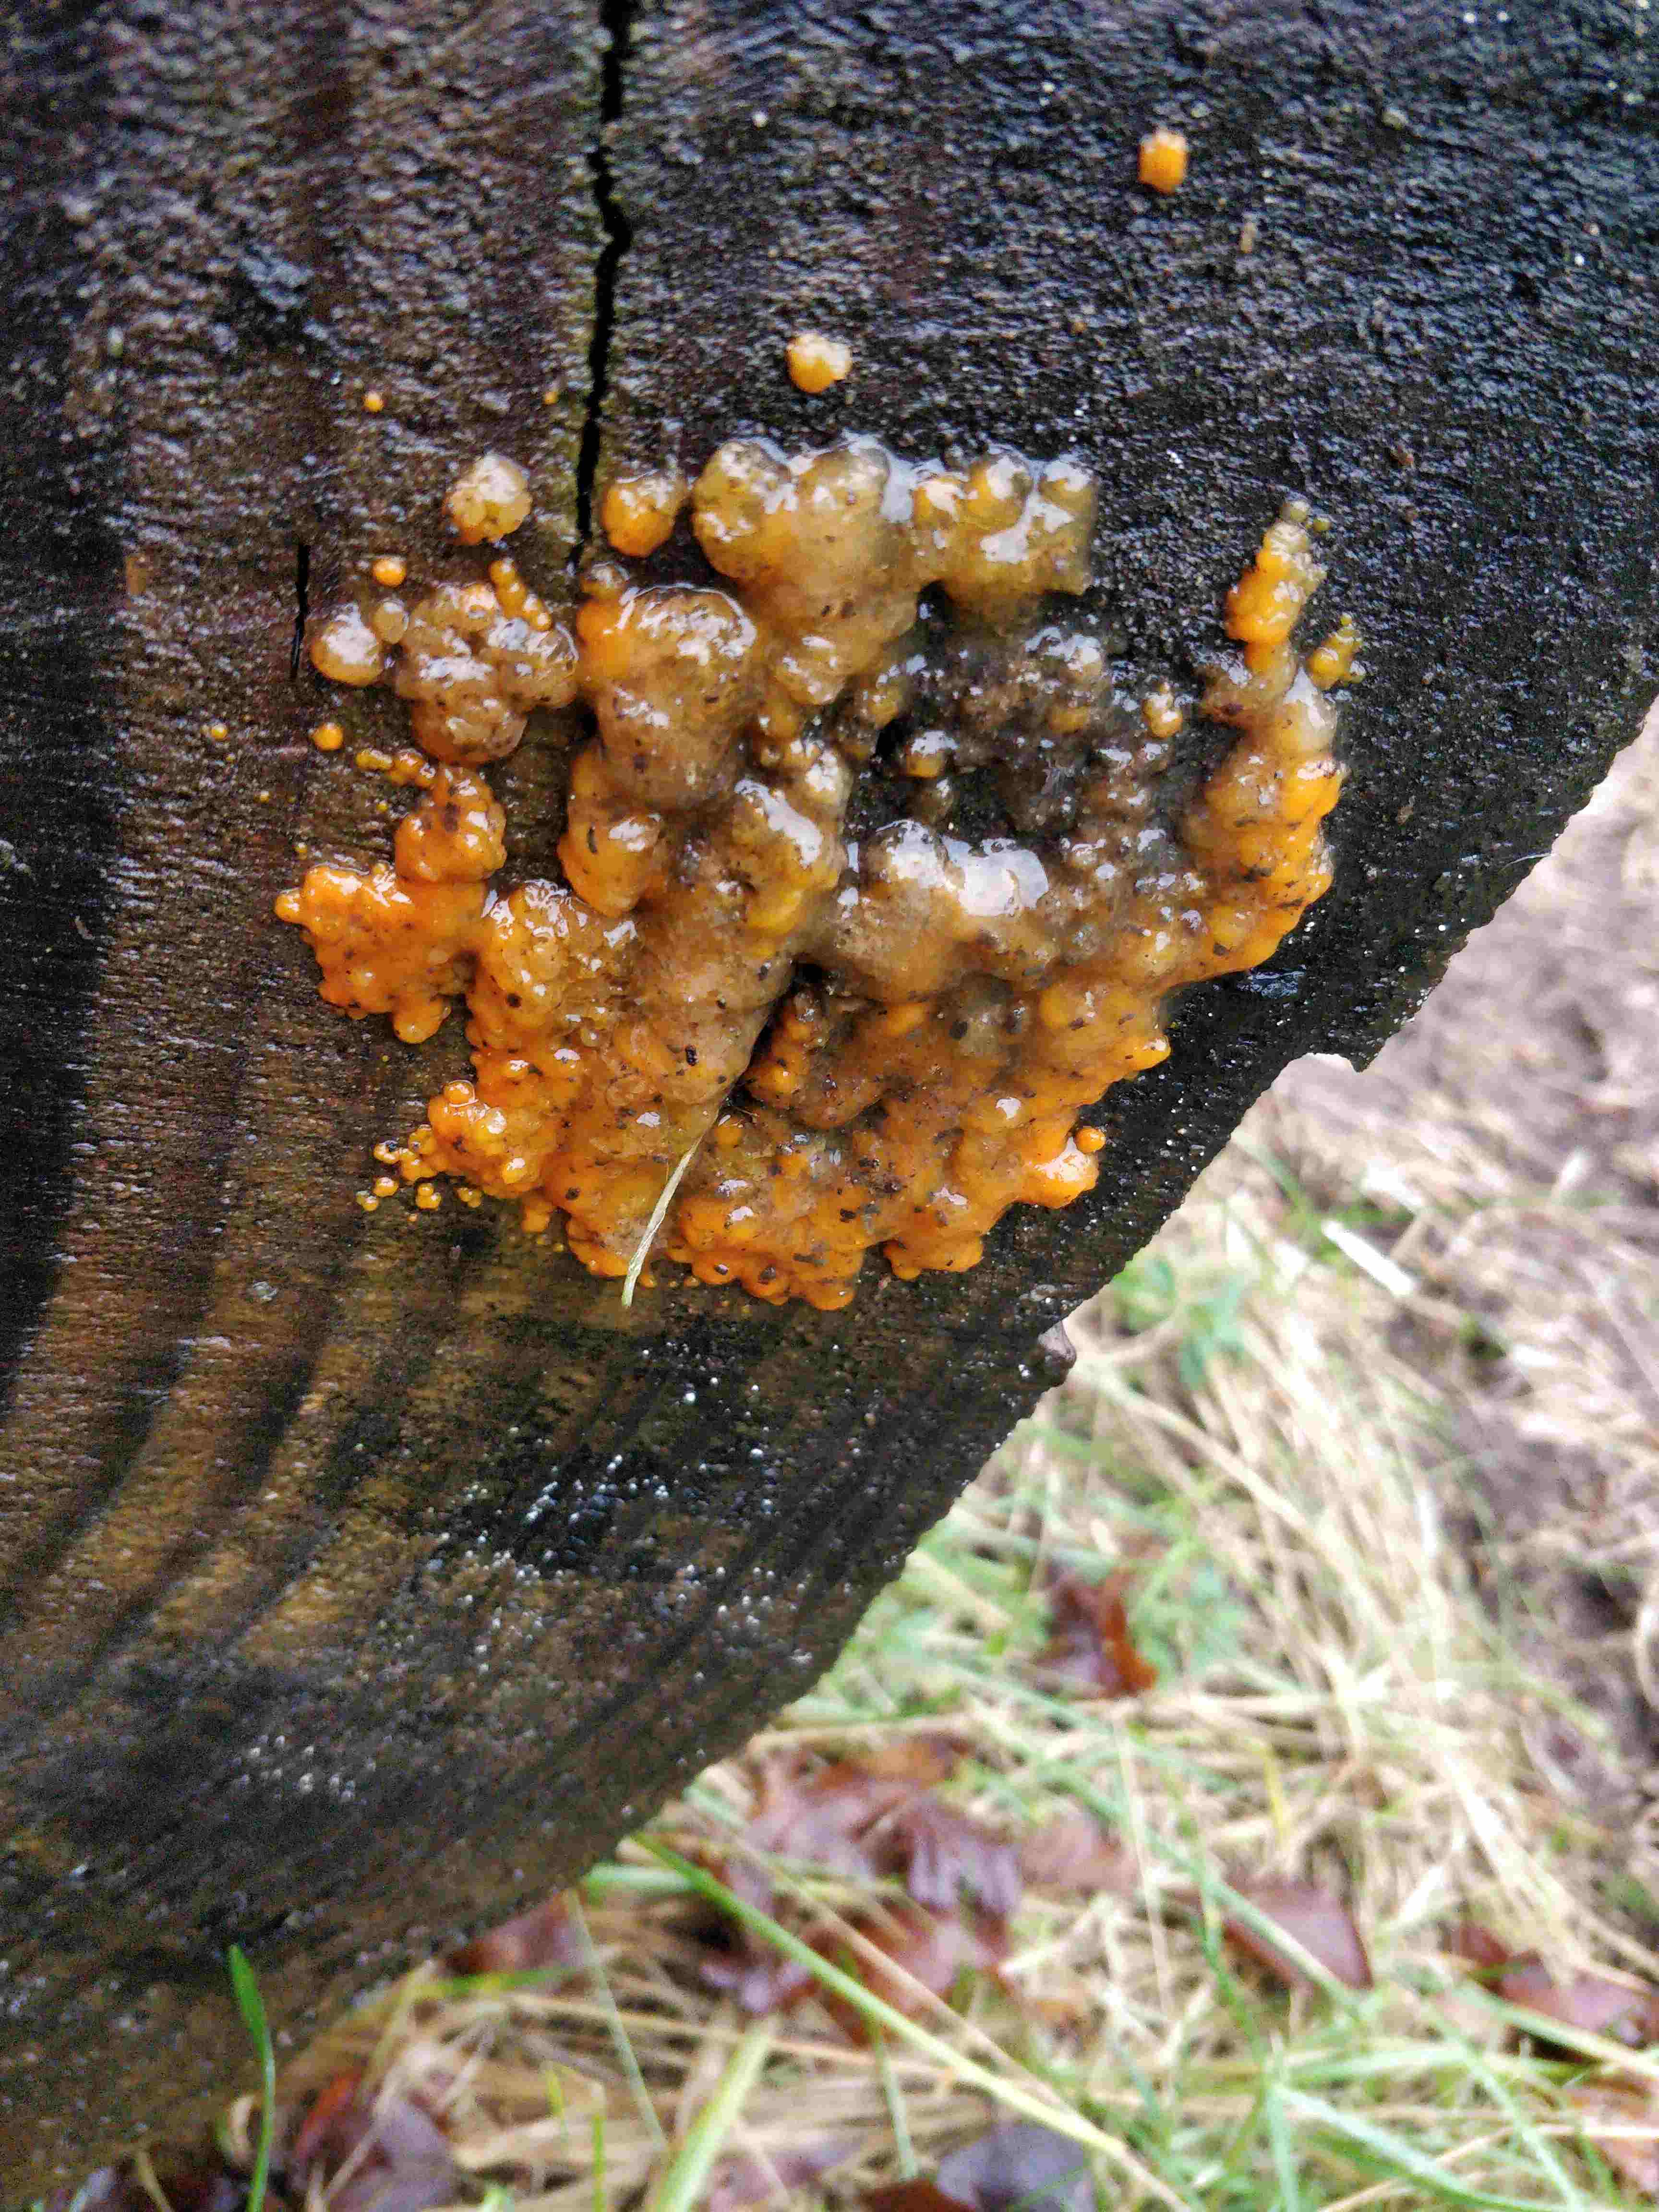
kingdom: Fungi
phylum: Basidiomycota
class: Dacrymycetes
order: Dacrymycetales
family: Dacrymycetaceae
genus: Dacrymyces
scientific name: Dacrymyces stillatus
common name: almindelig tåresvamp
